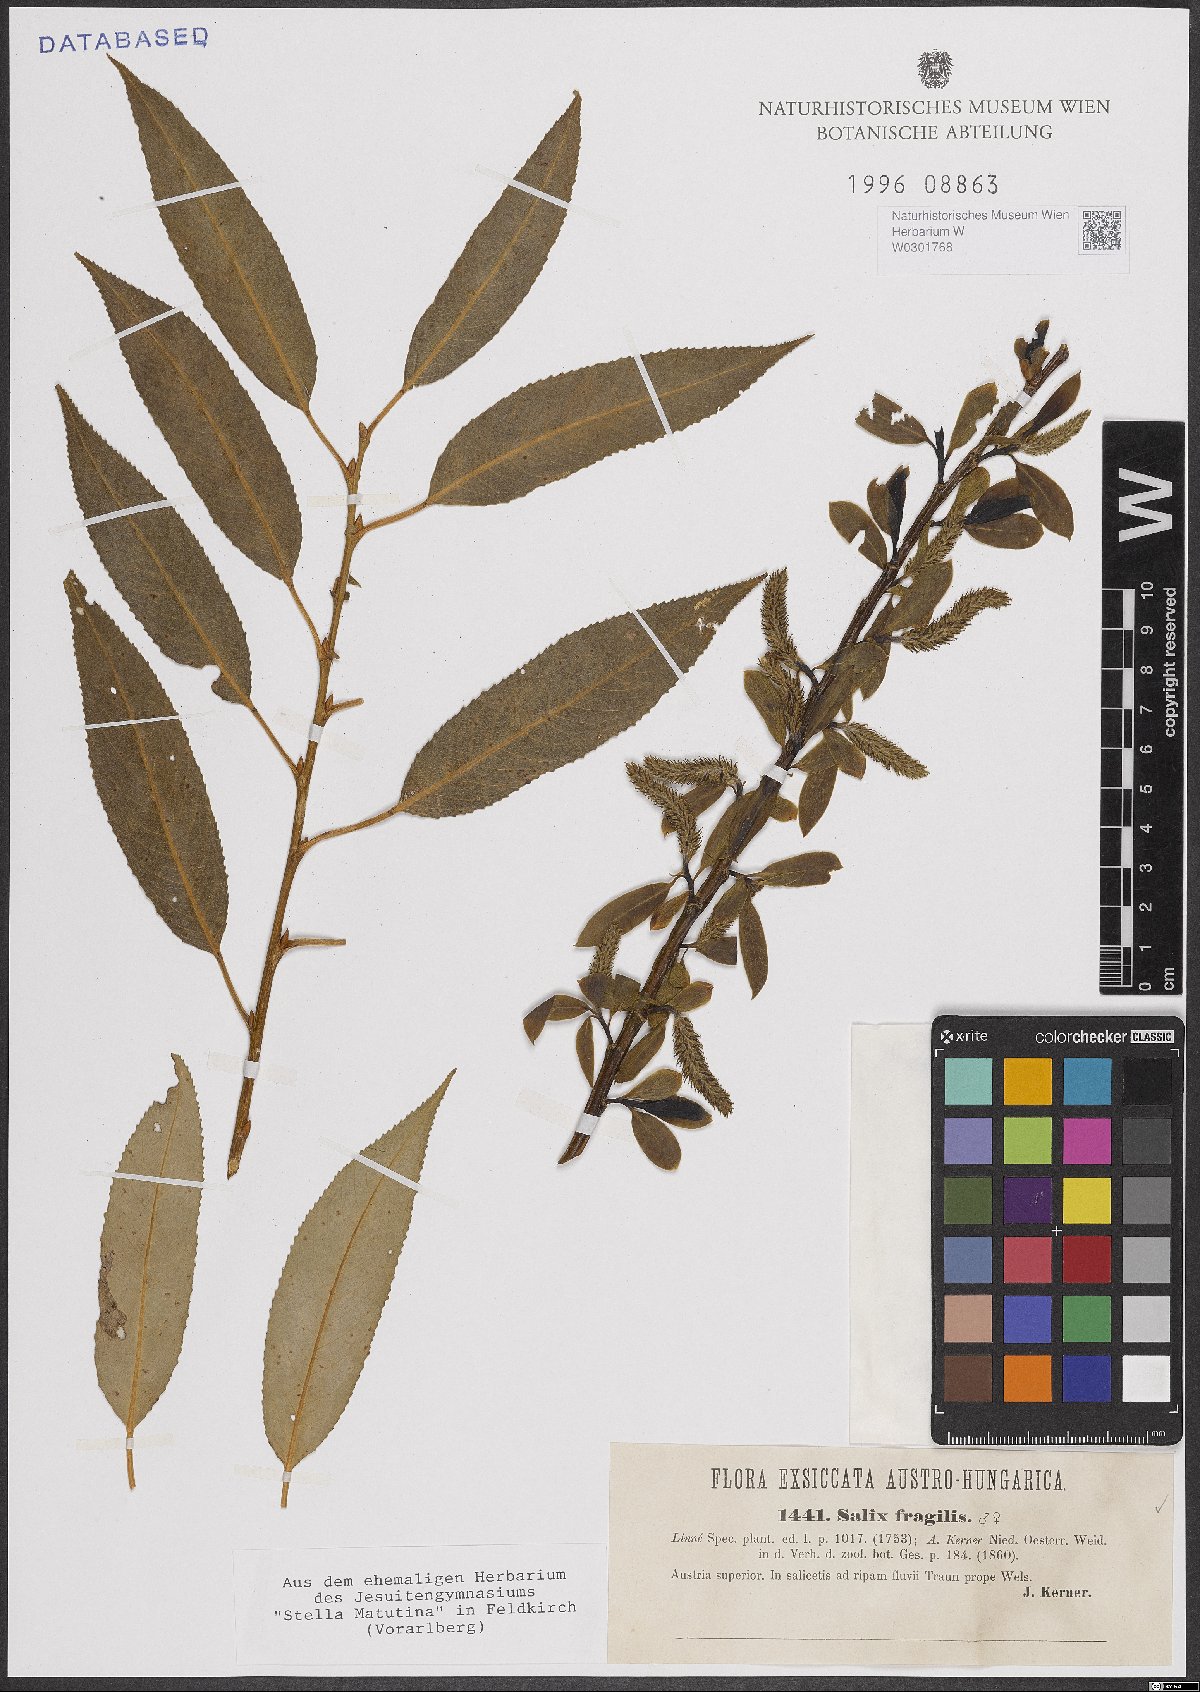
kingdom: Plantae
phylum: Tracheophyta
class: Magnoliopsida
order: Malpighiales
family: Salicaceae
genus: Salix
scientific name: Salix fragilis
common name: Crack willow
